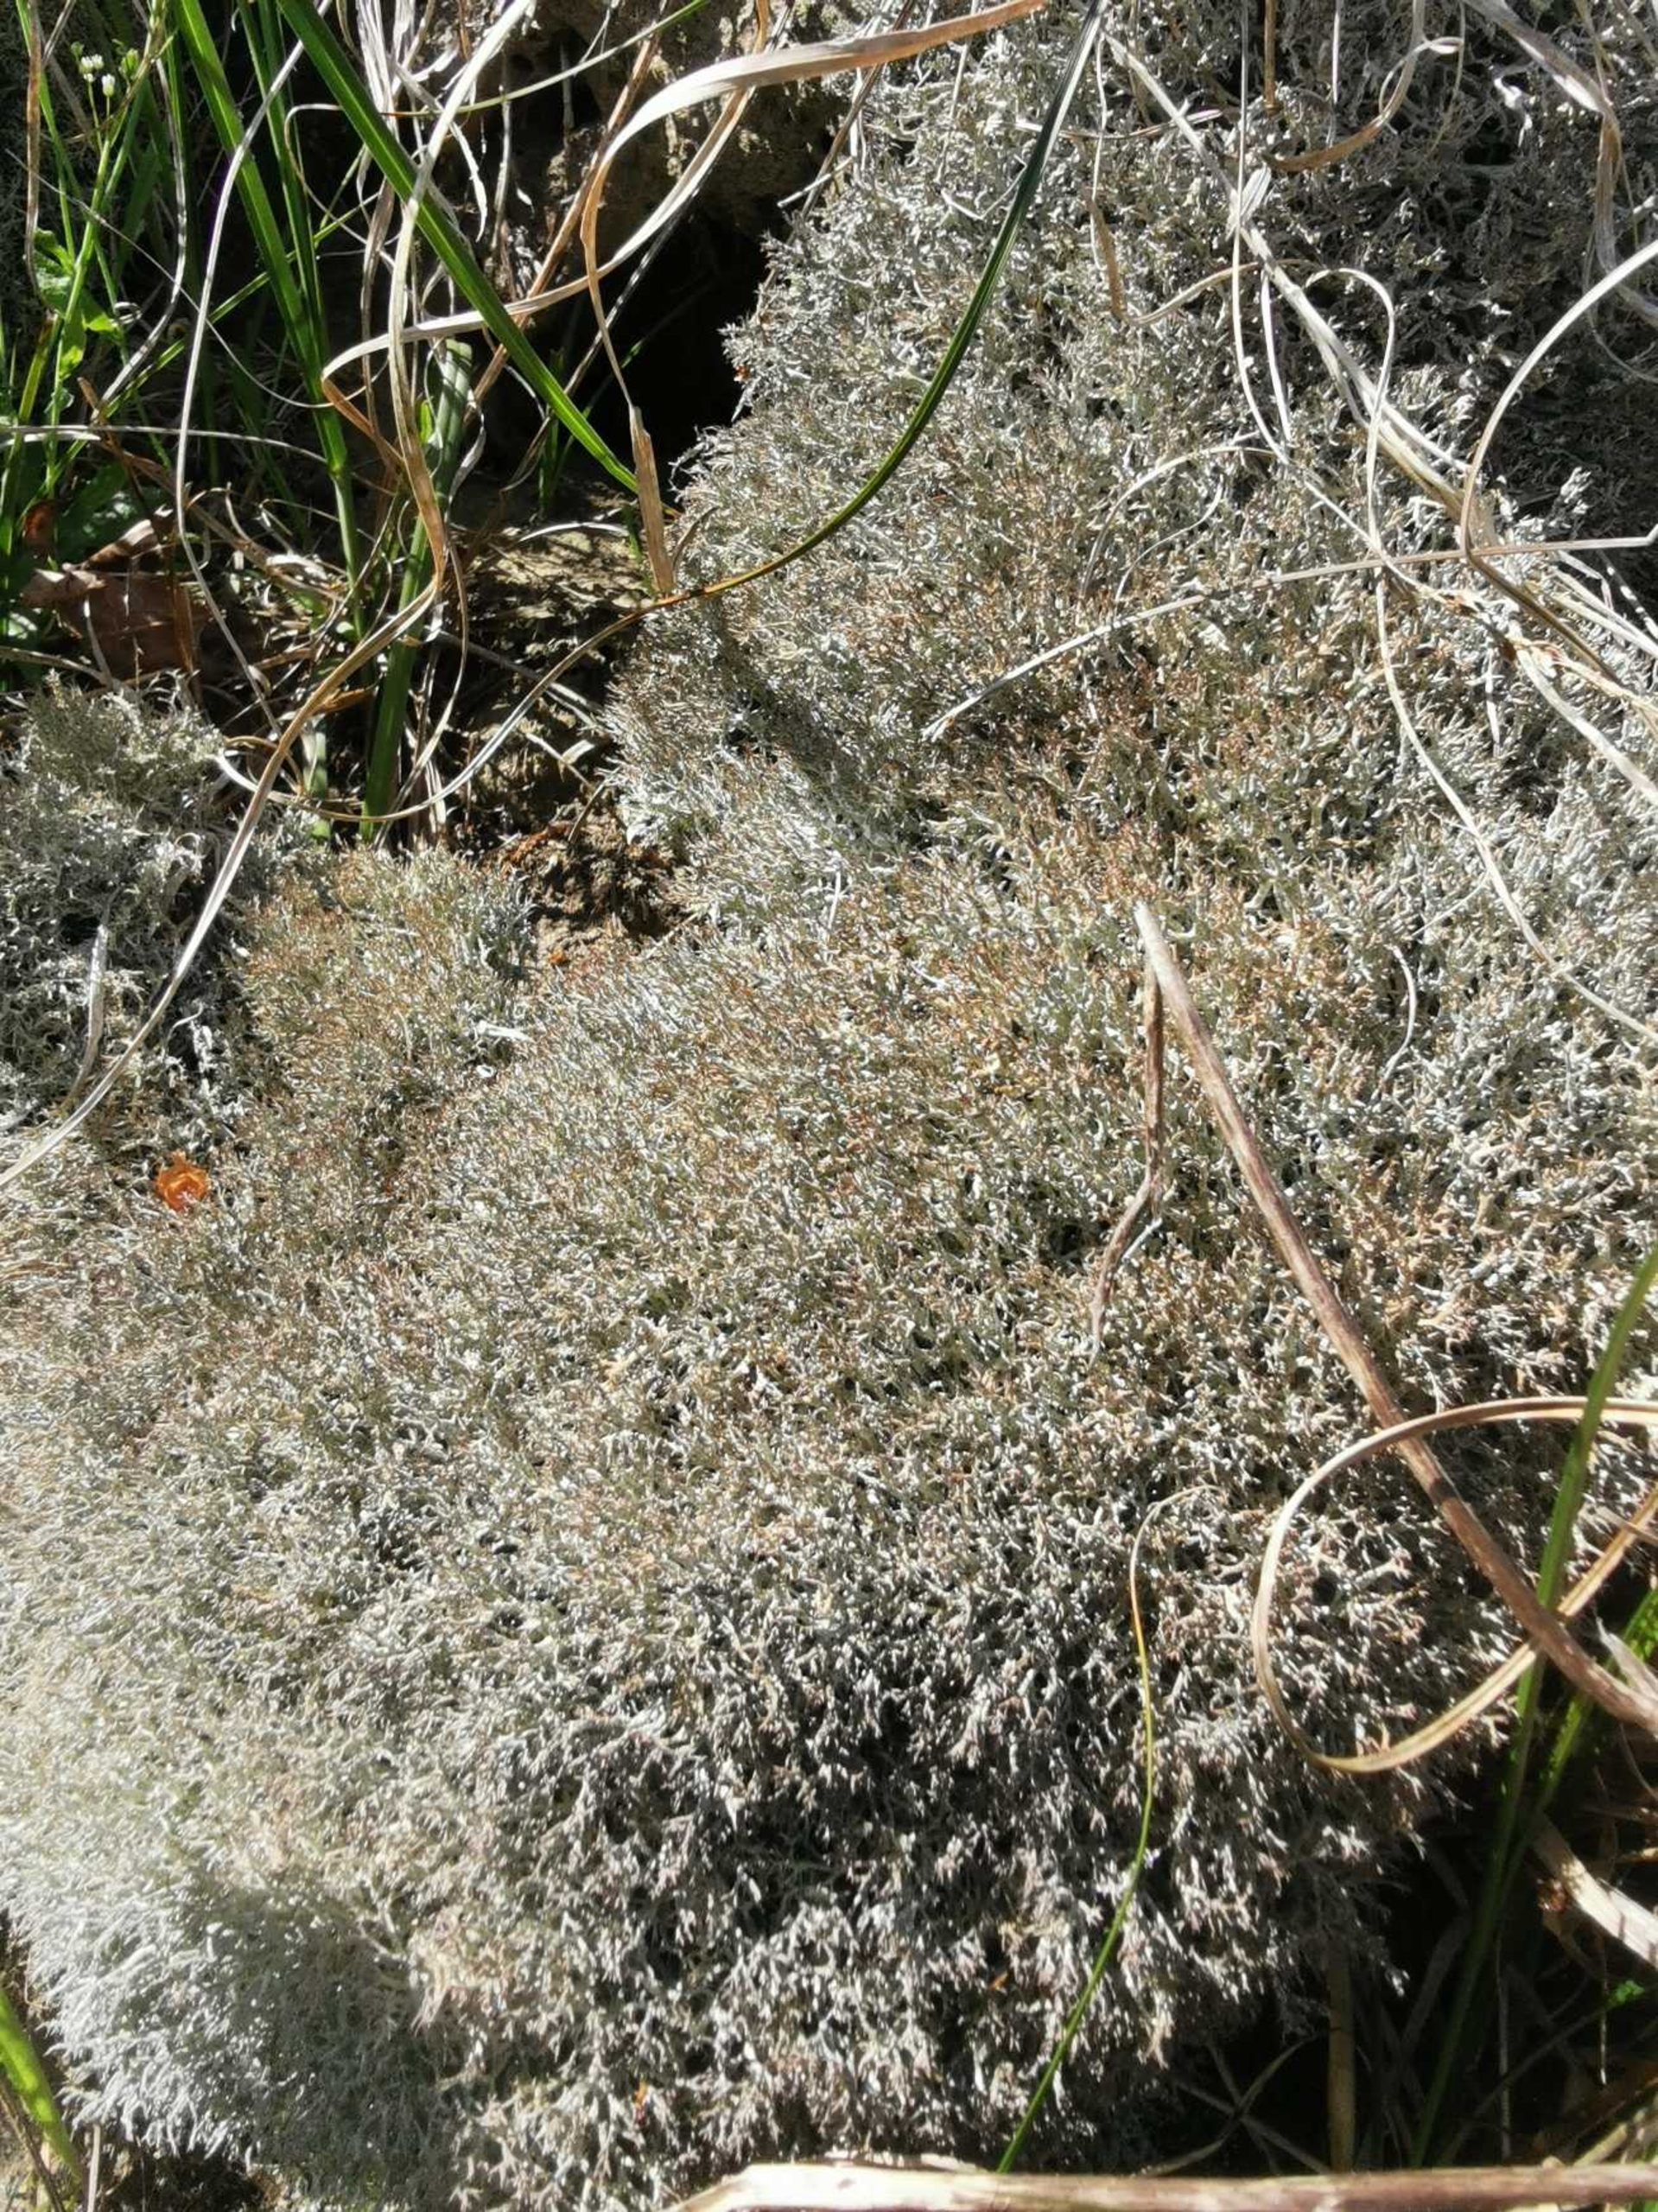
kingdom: Fungi
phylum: Ascomycota
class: Lecanoromycetes
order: Lecanorales
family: Cladoniaceae
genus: Cladonia
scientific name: Cladonia rangiformis
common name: Spættet bægerlav
